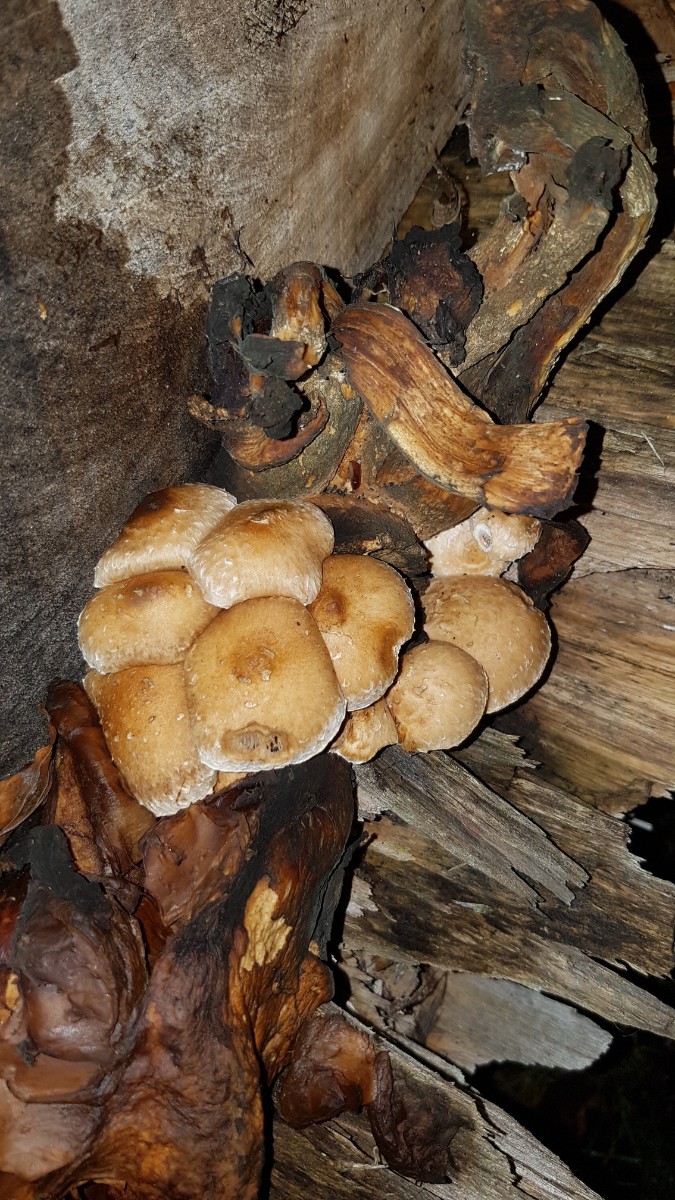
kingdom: Fungi
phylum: Basidiomycota
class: Agaricomycetes
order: Agaricales
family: Strophariaceae
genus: Pholiota
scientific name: Pholiota populnea
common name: poppel-kæmpeskælhat
